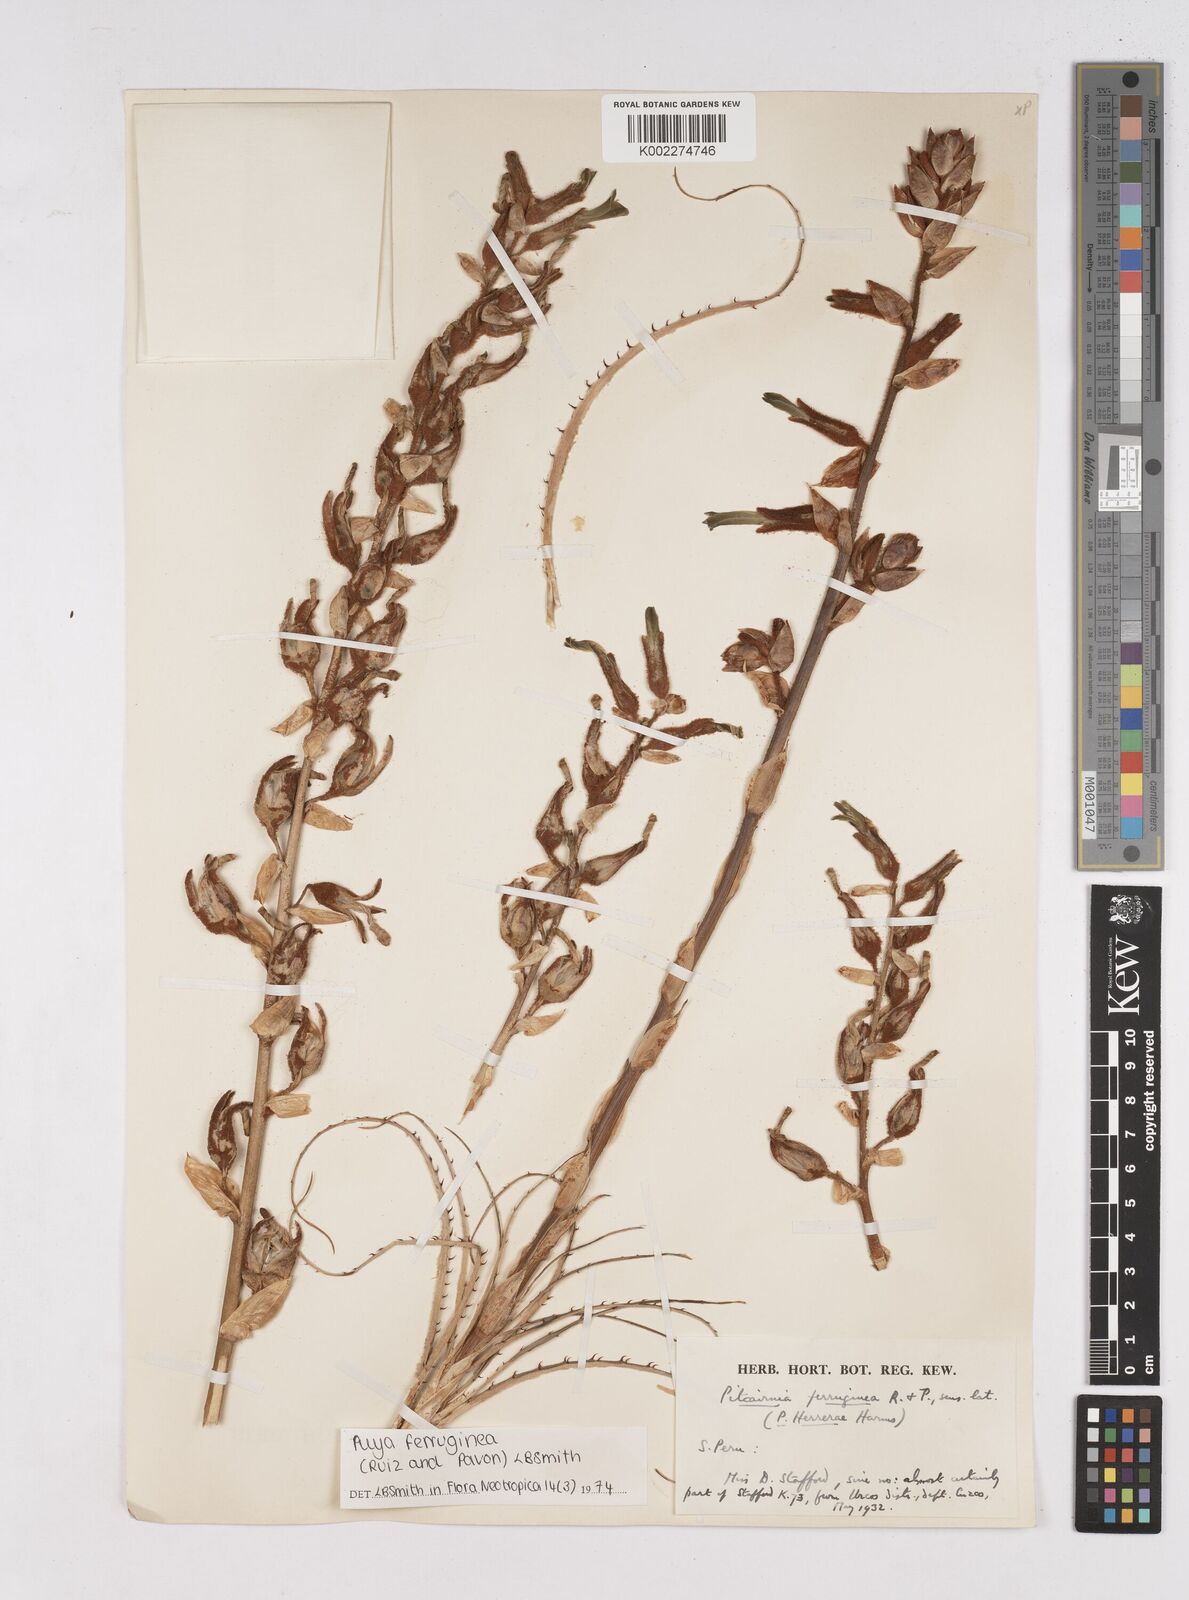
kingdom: Plantae
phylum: Tracheophyta
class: Liliopsida
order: Poales
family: Bromeliaceae
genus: Puya
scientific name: Puya ferruginea
